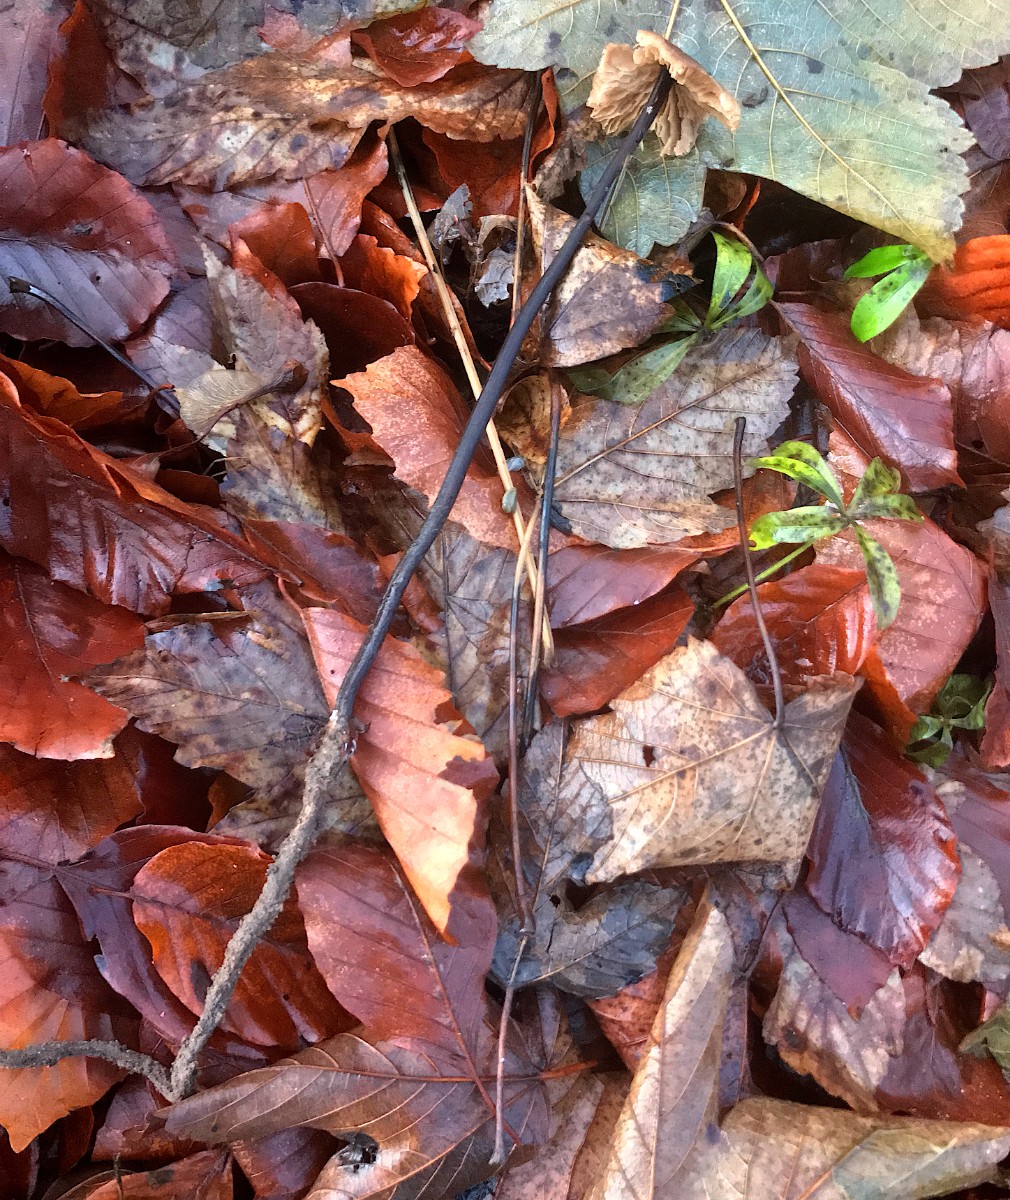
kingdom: Fungi
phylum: Basidiomycota
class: Agaricomycetes
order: Agaricales
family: Omphalotaceae
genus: Mycetinis
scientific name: Mycetinis alliaceus
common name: stor løghat
